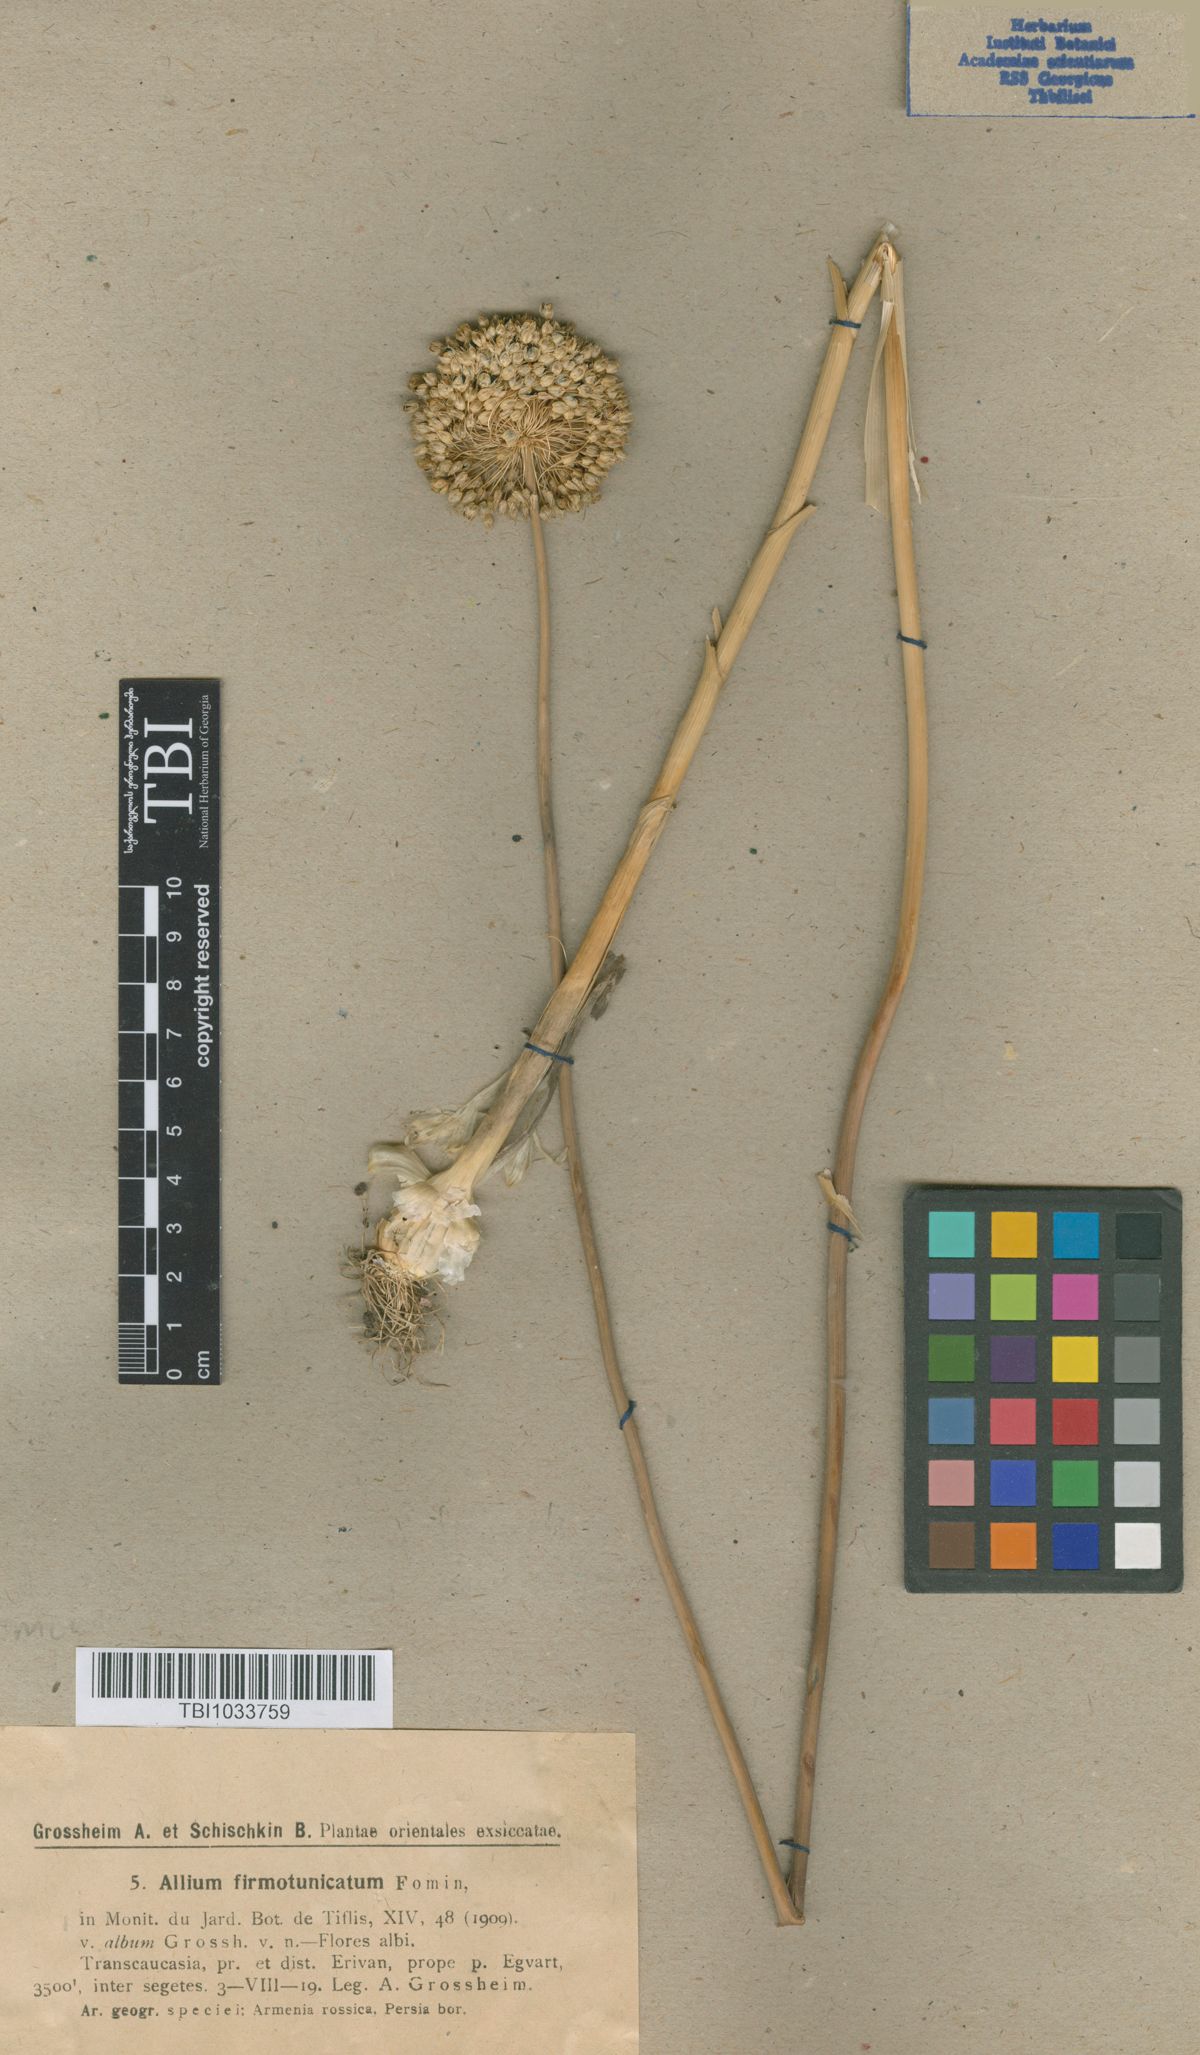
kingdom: Plantae
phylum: Tracheophyta
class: Liliopsida
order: Asparagales
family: Amaryllidaceae
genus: Allium
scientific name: Allium ampeloprasum
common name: Wild leek
